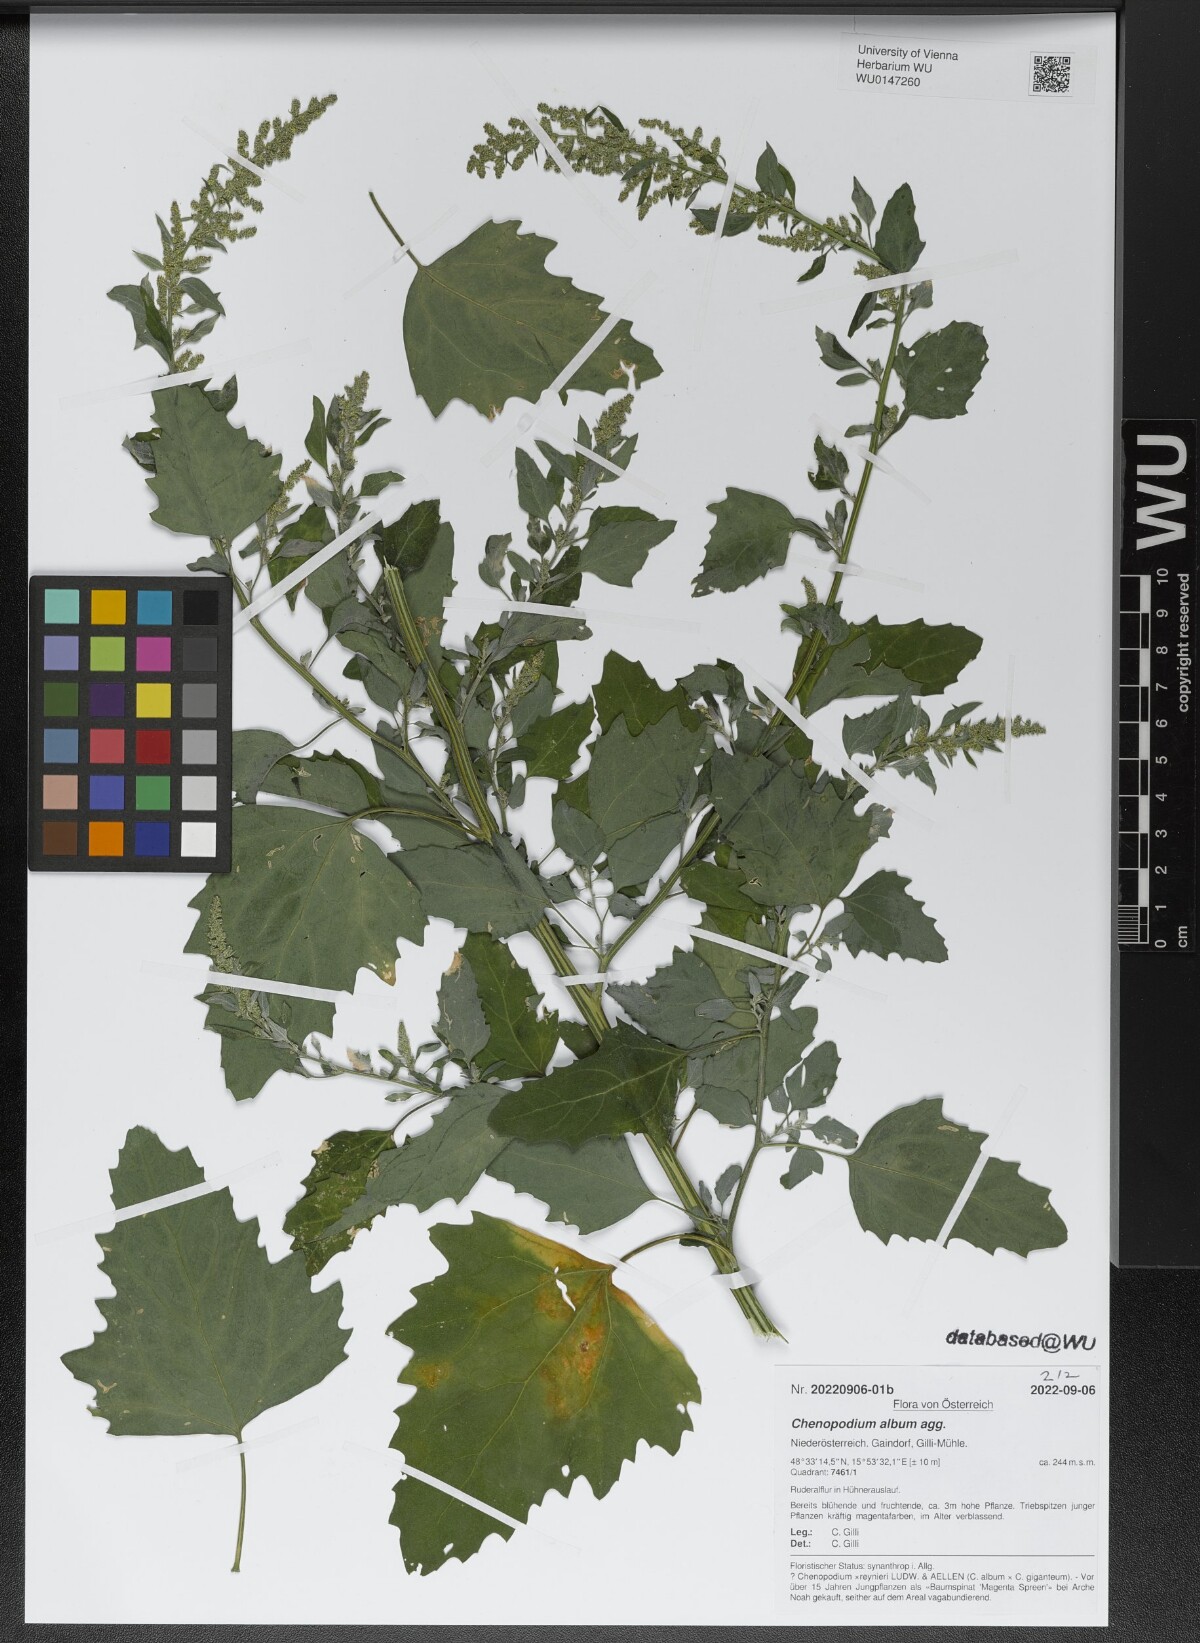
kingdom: Plantae
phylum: Tracheophyta
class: Magnoliopsida
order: Caryophyllales
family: Amaranthaceae
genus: Chenopodium
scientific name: Chenopodium album
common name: Fat-hen
